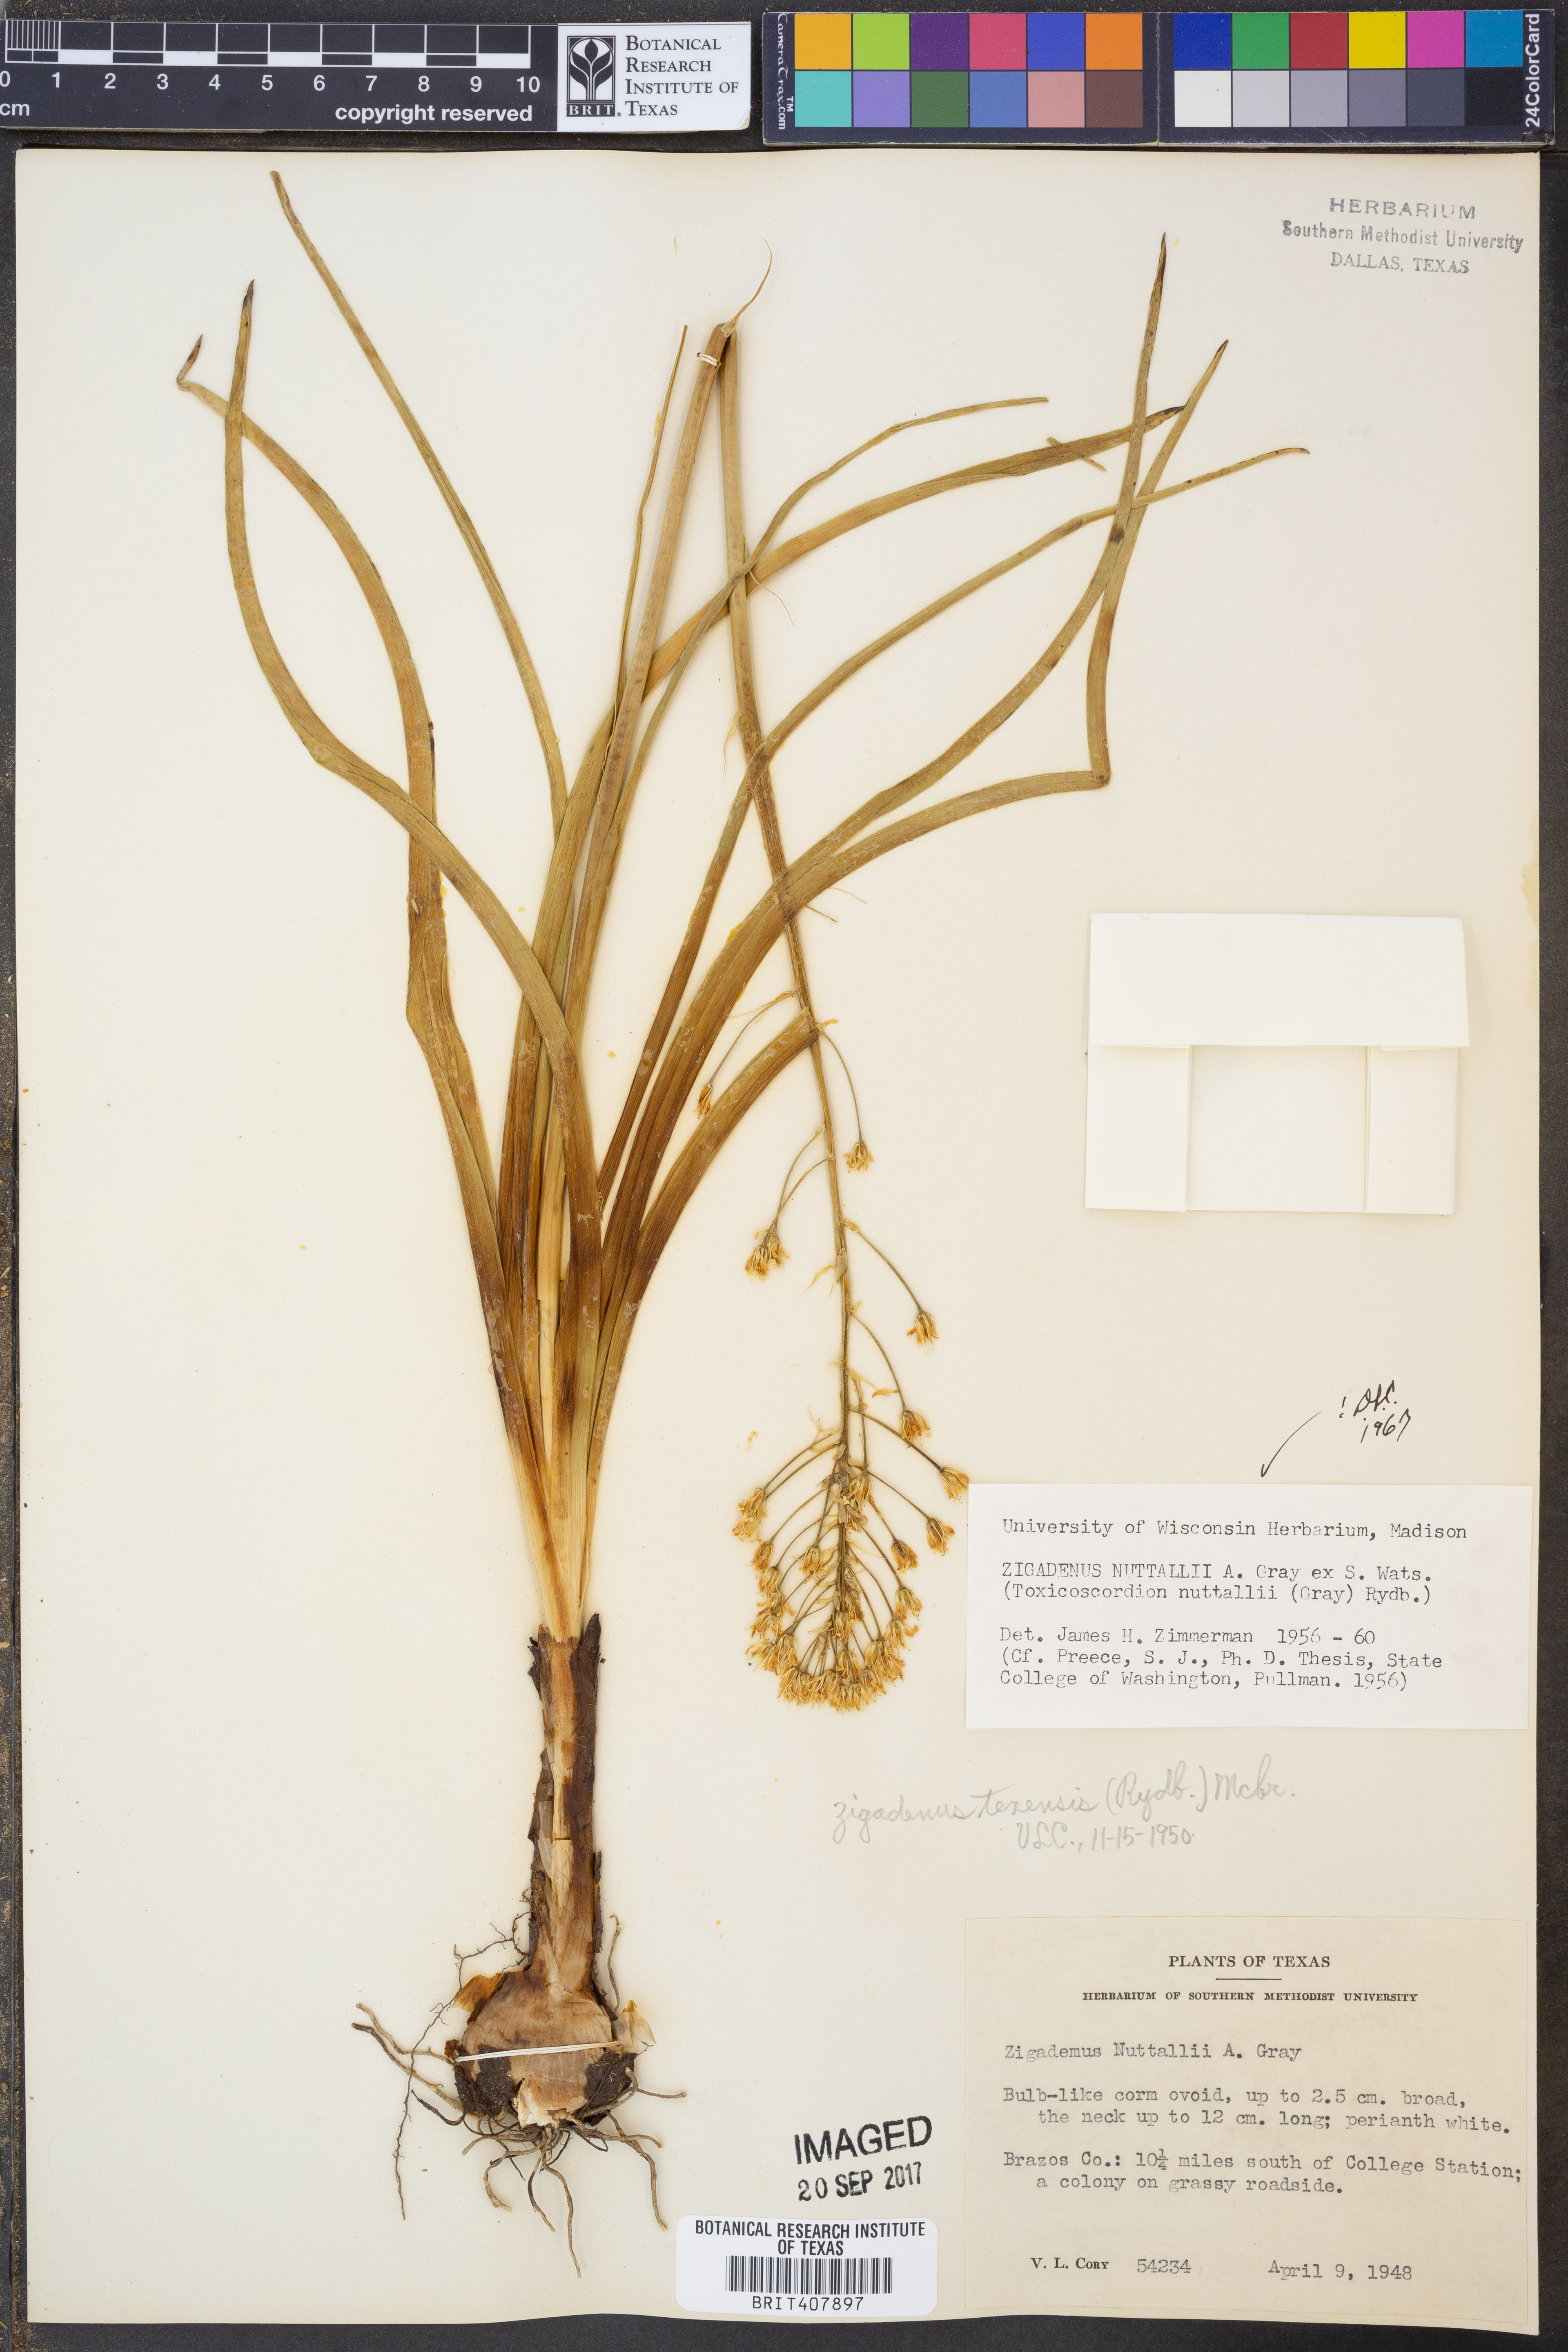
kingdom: Plantae
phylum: Tracheophyta
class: Liliopsida
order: Liliales
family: Melanthiaceae
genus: Toxicoscordion
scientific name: Toxicoscordion nuttallii
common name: Poison sego
